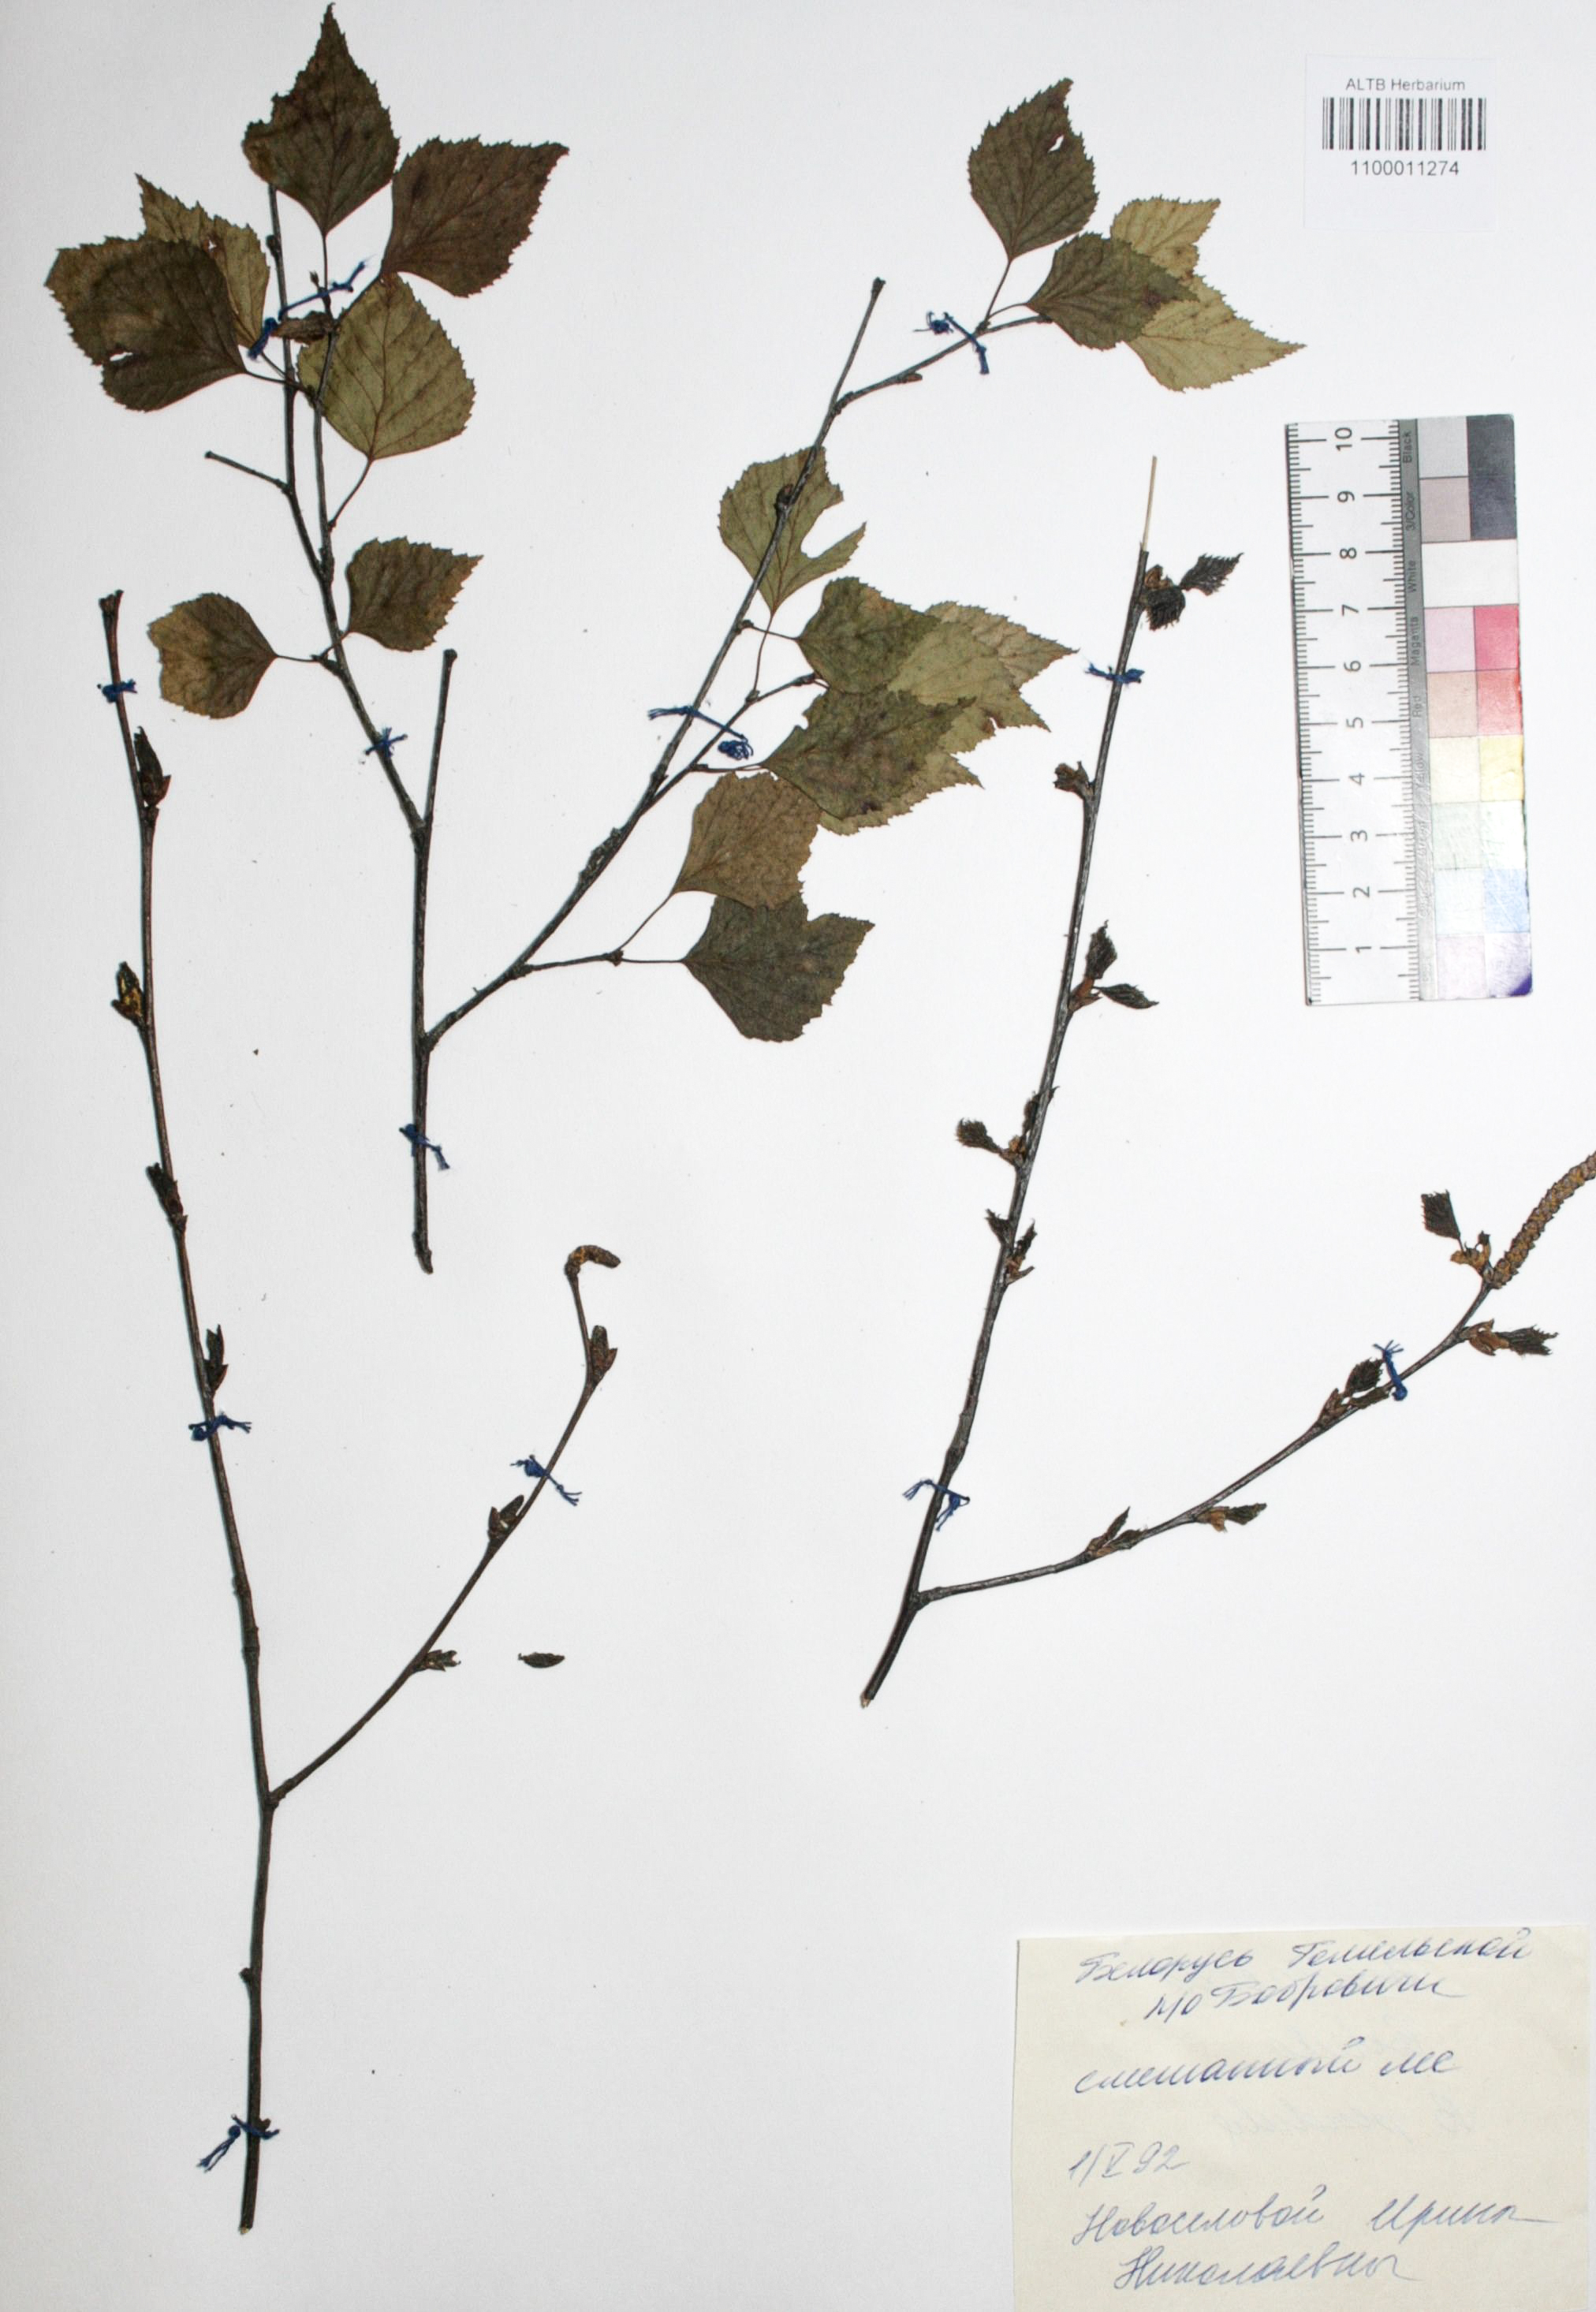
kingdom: Plantae
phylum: Tracheophyta
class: Magnoliopsida
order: Fagales
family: Betulaceae
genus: Betula
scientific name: Betula pendula
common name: Silver birch
